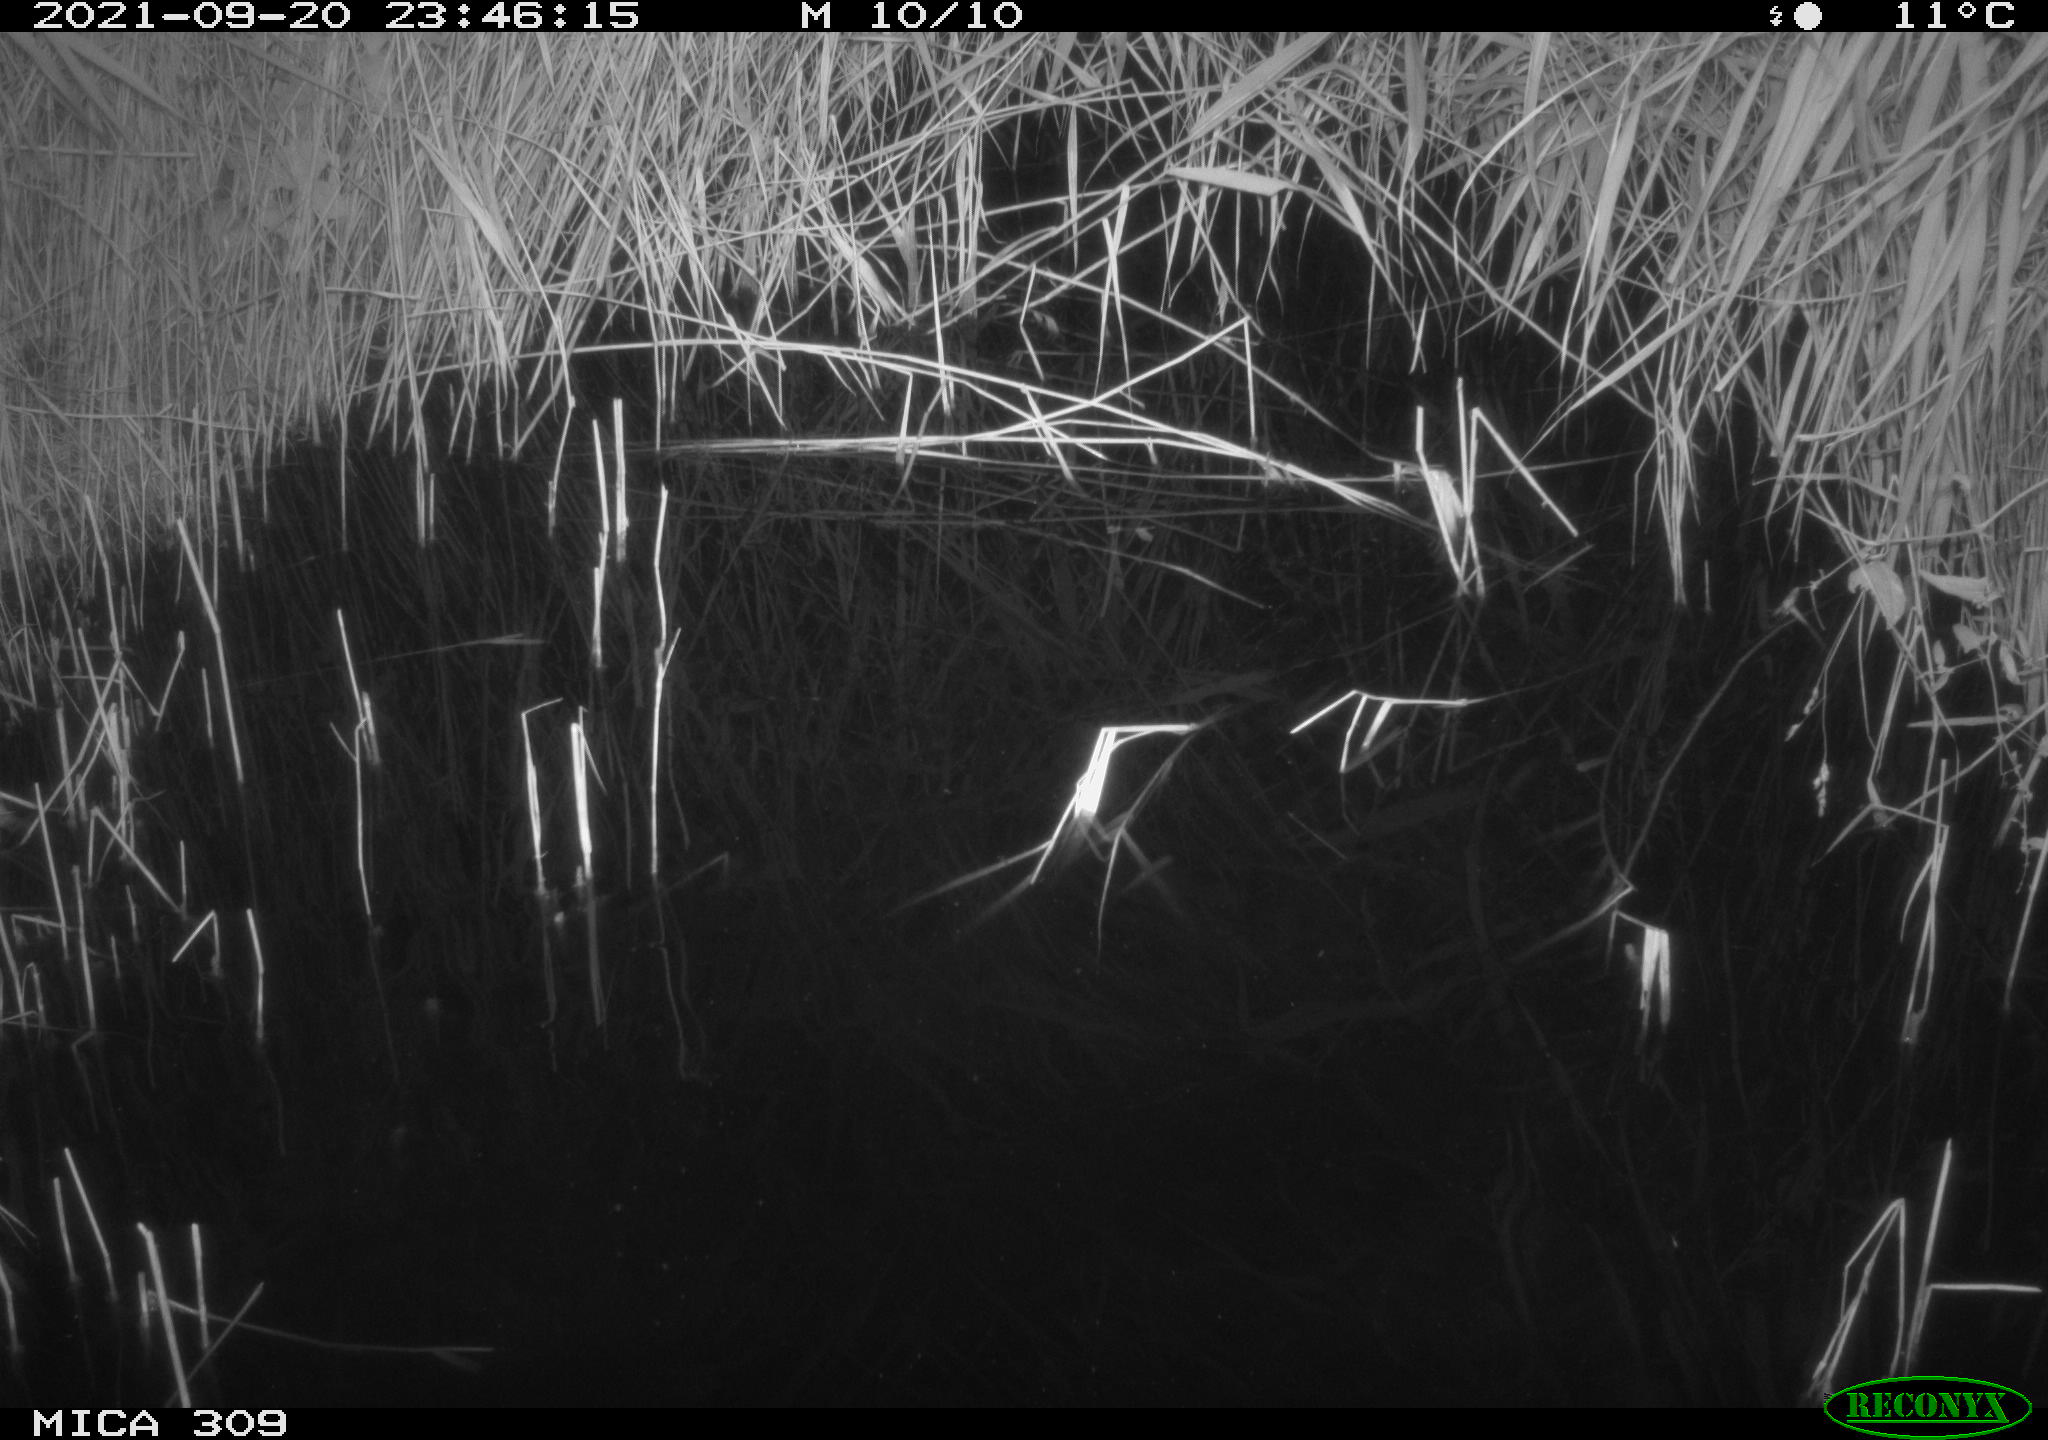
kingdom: Animalia
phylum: Chordata
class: Aves
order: Anseriformes
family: Anatidae
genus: Anas
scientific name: Anas platyrhynchos
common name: Mallard
